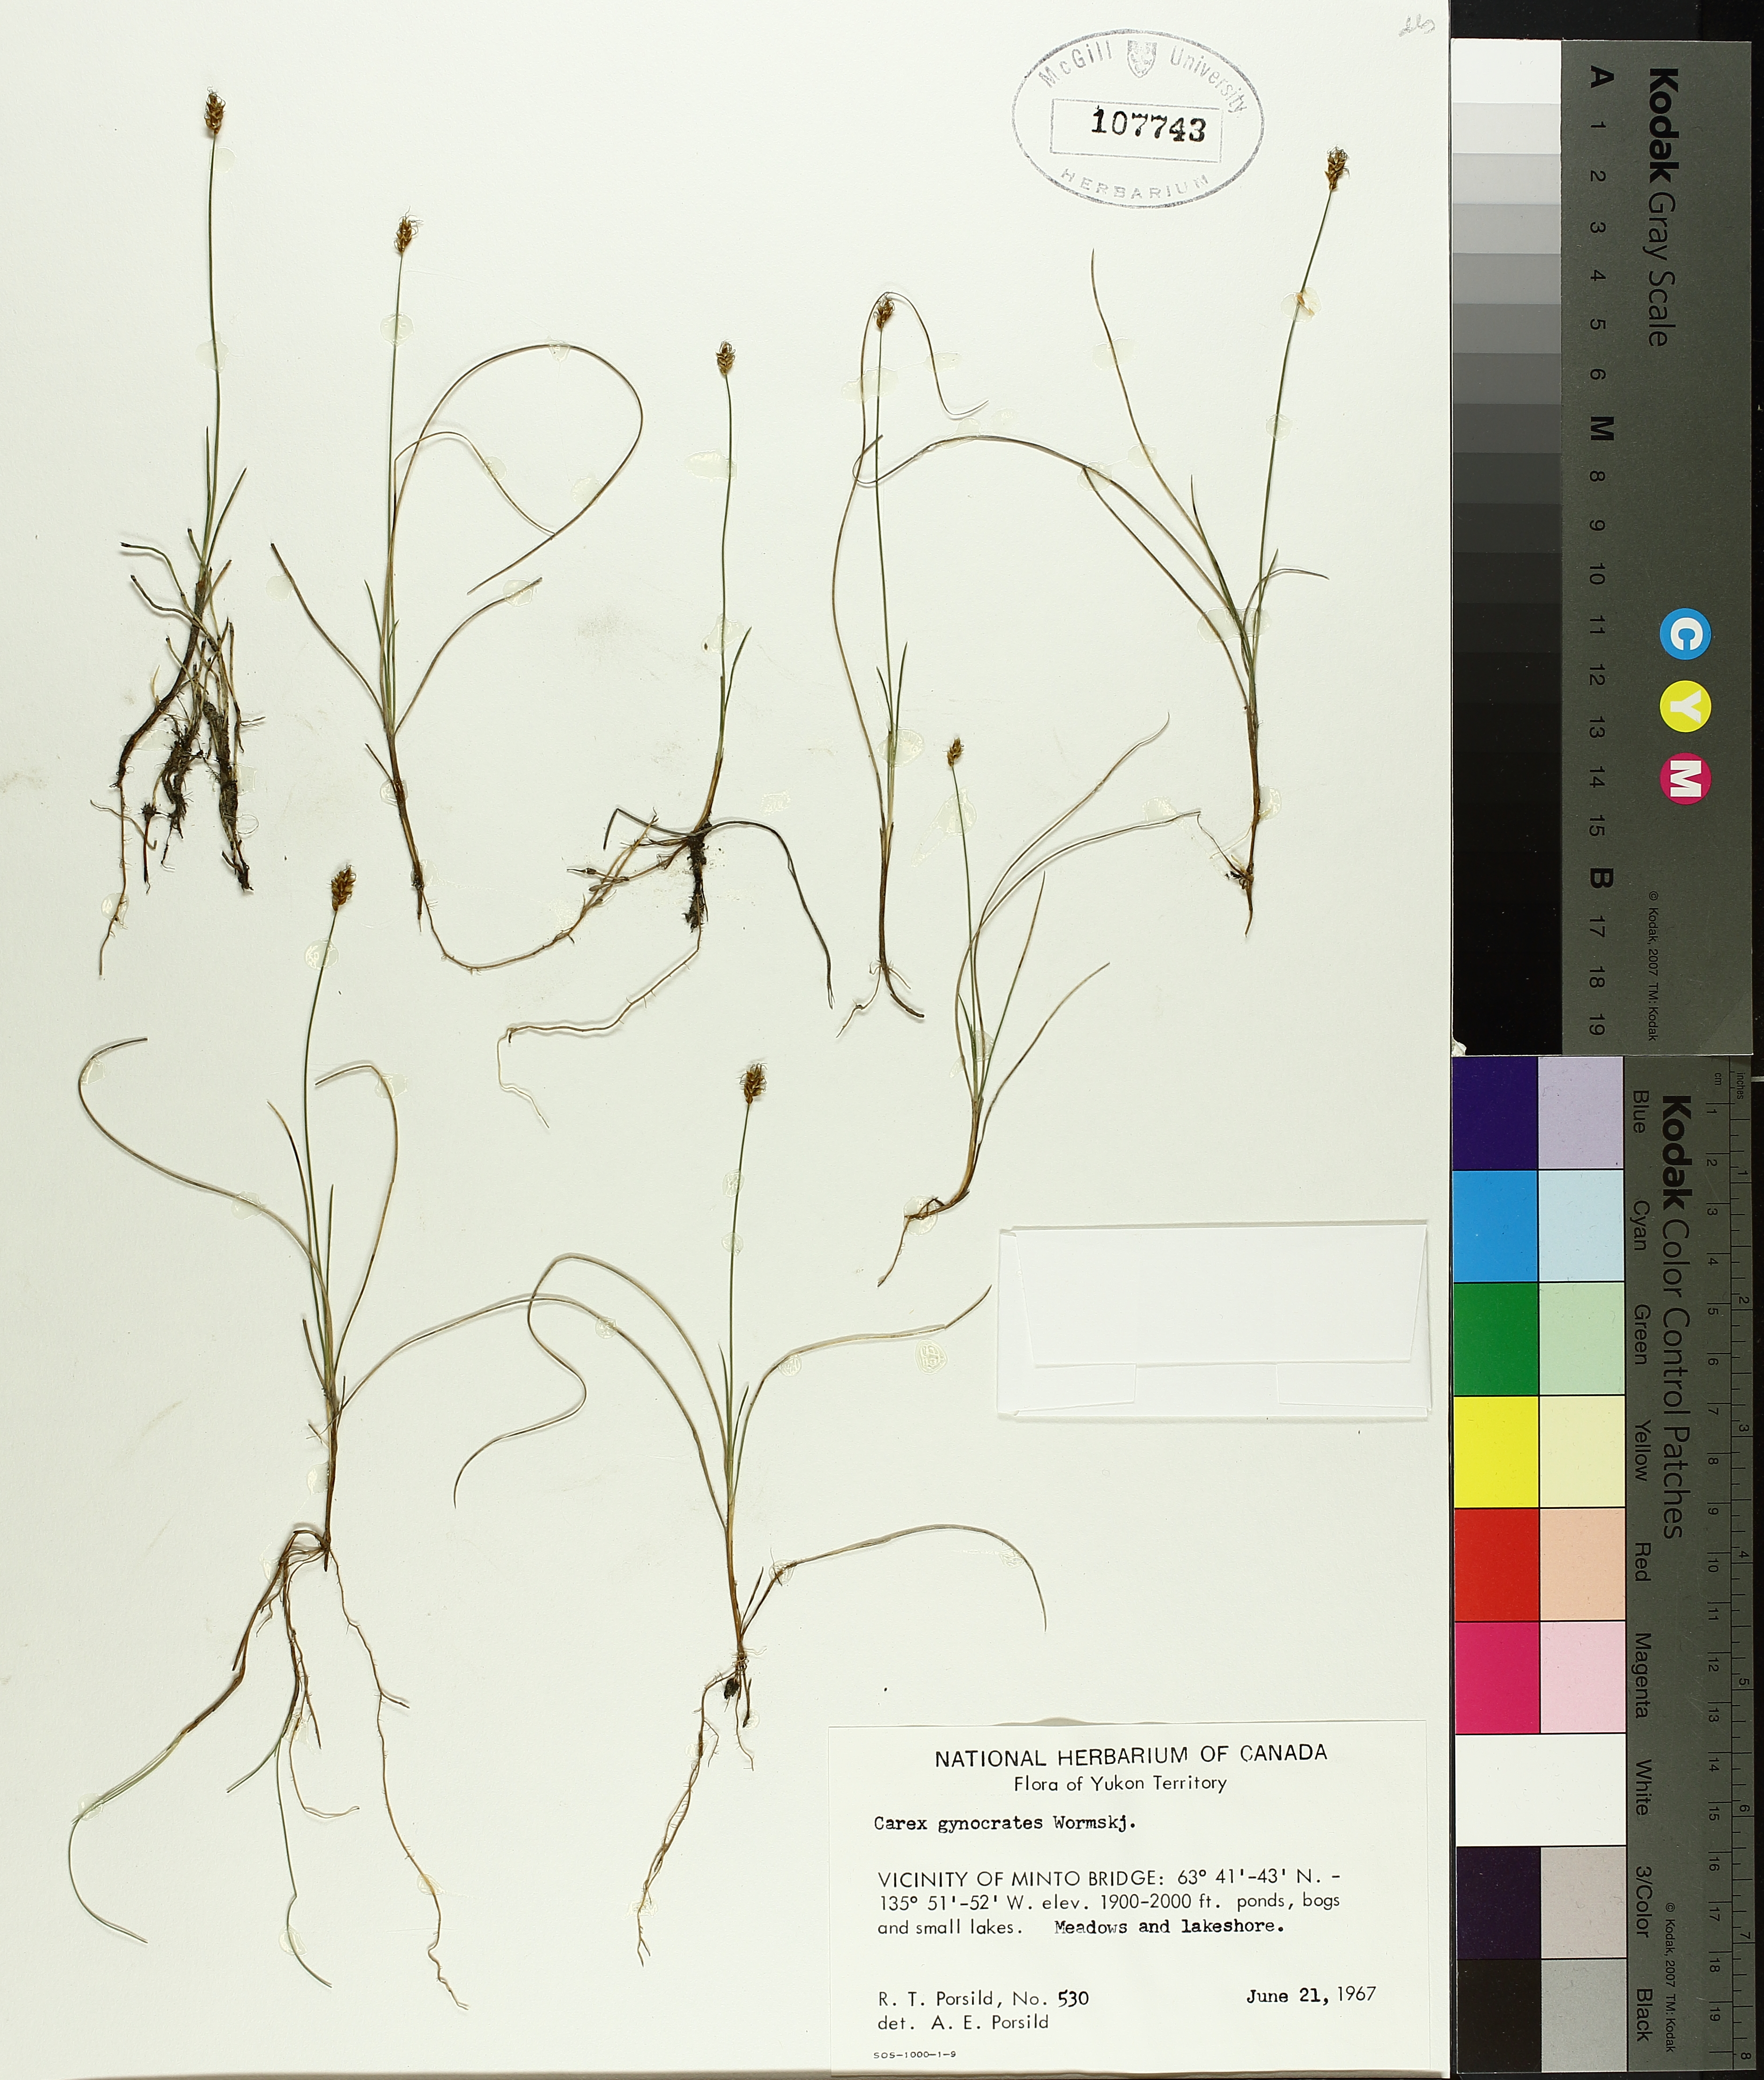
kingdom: Plantae
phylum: Tracheophyta
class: Liliopsida
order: Poales
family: Cyperaceae
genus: Carex
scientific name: Carex gynocrates
